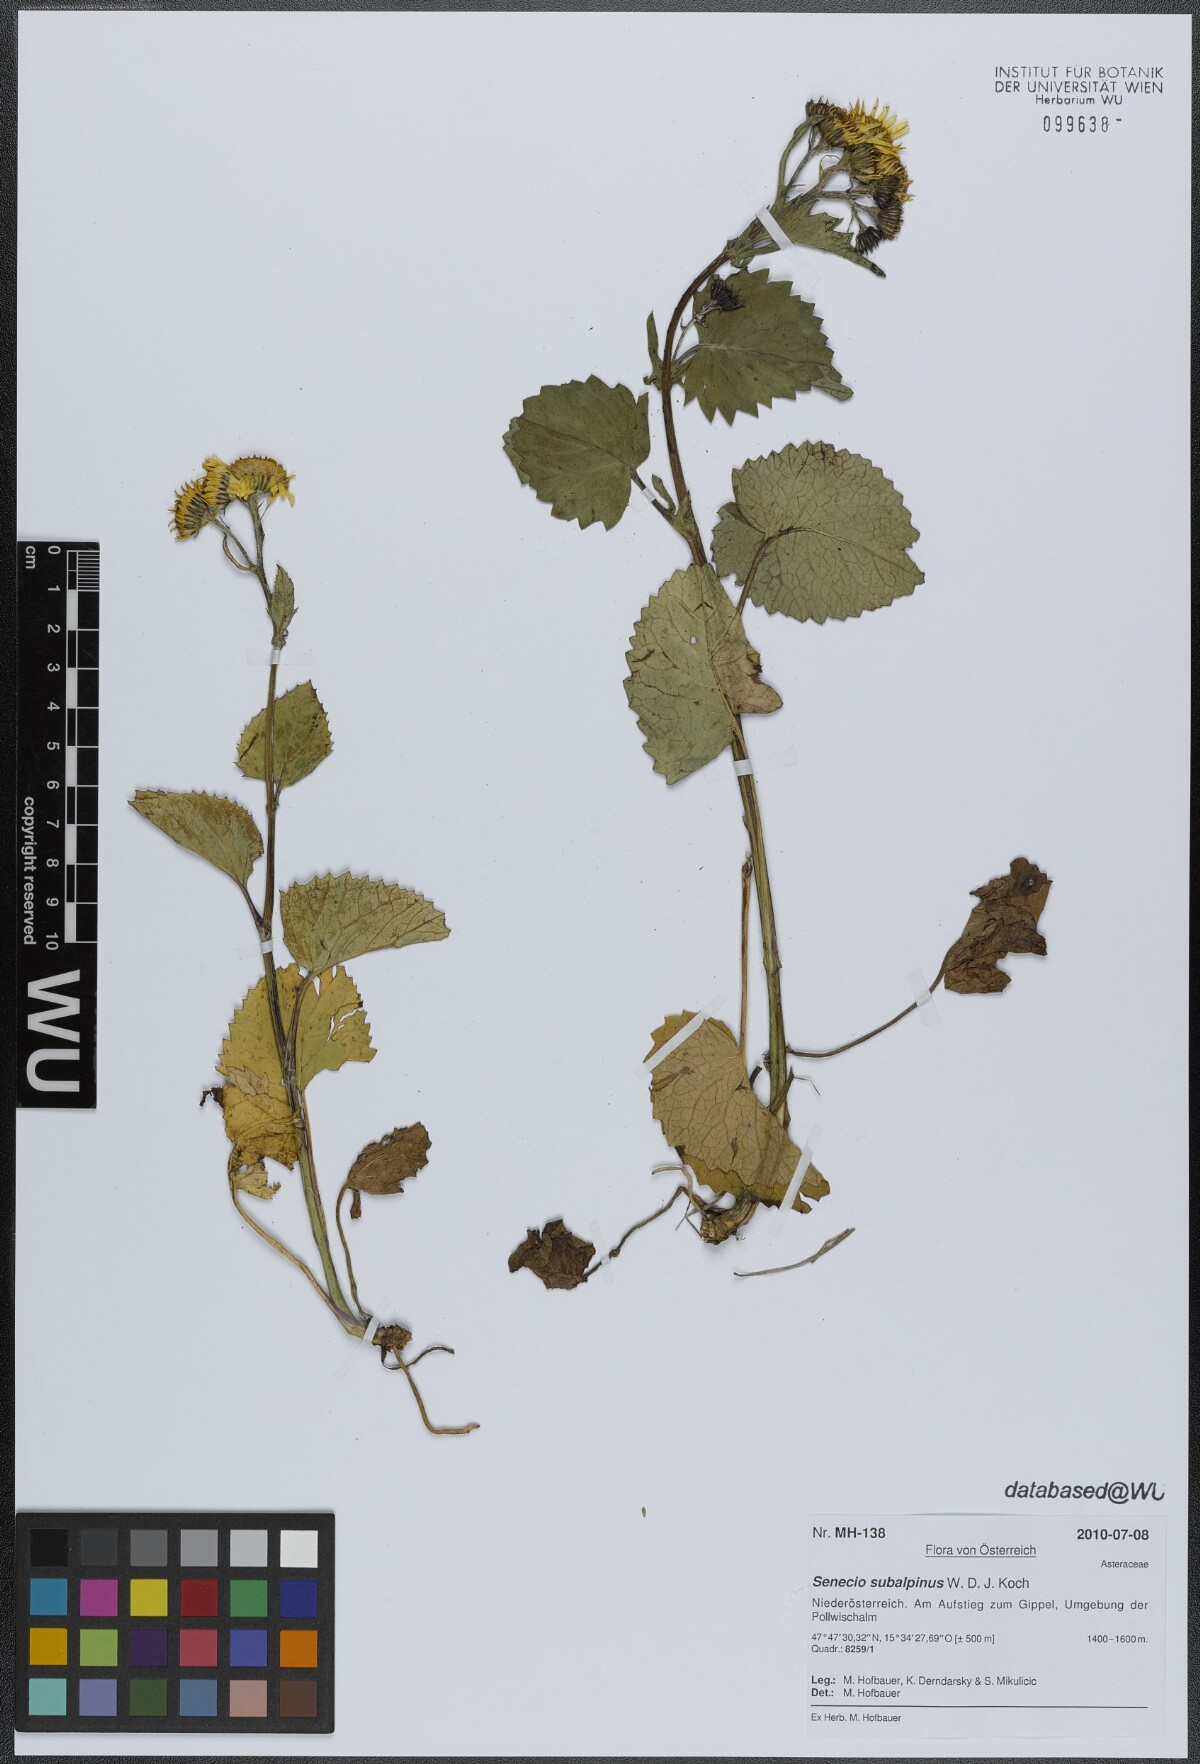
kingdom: Plantae
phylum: Tracheophyta
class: Magnoliopsida
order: Asterales
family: Asteraceae
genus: Jacobaea
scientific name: Jacobaea subalpina
